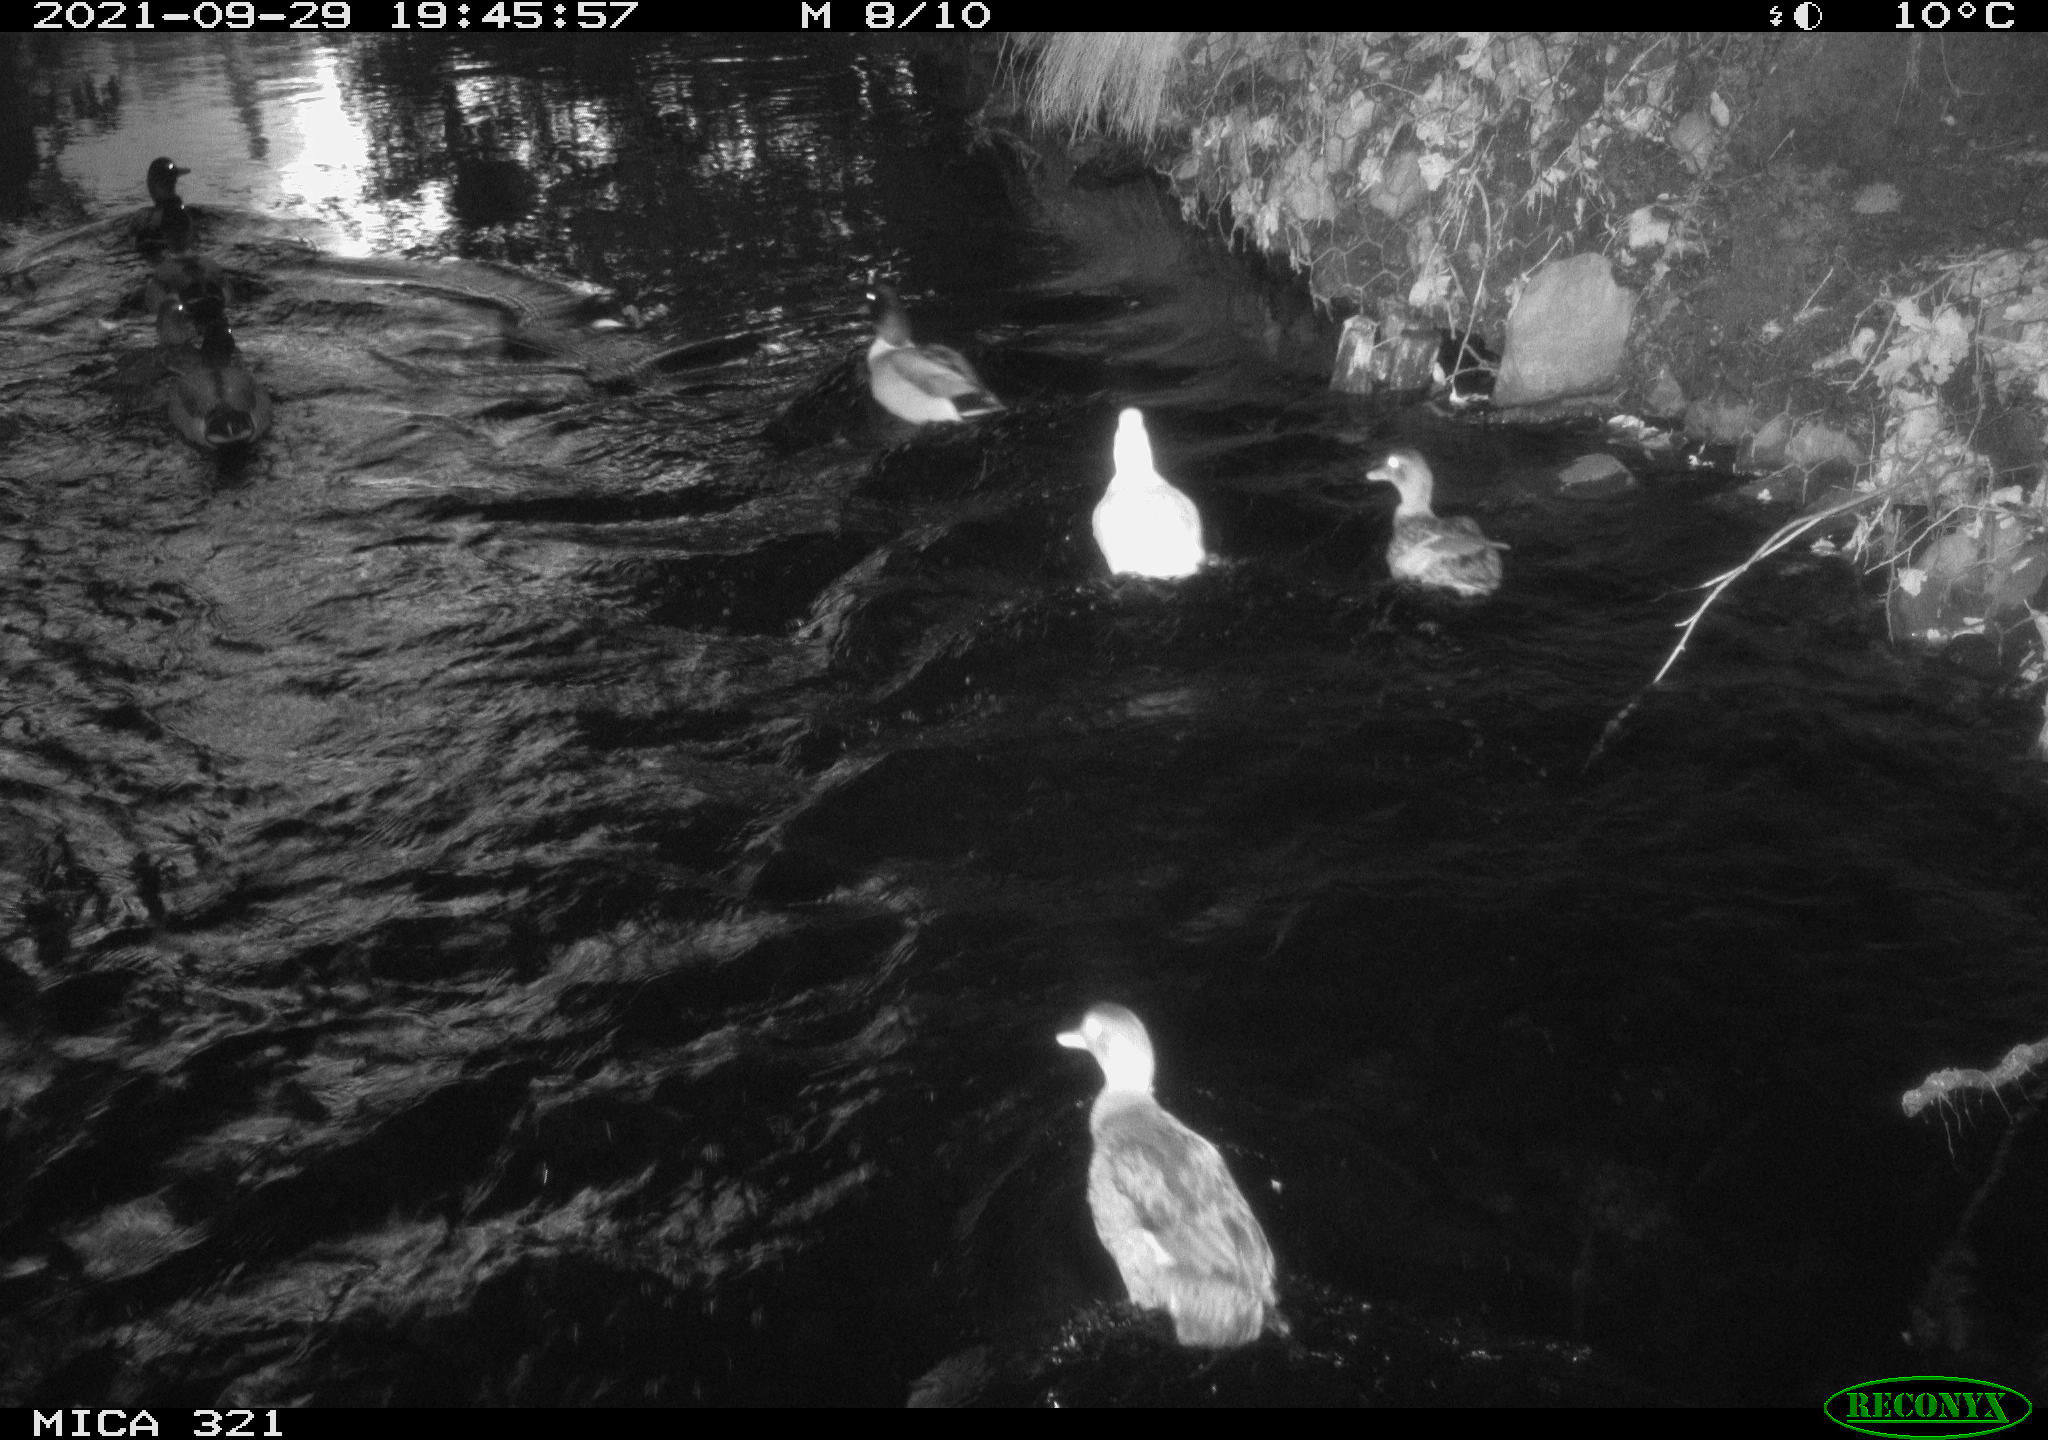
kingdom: Animalia
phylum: Chordata
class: Aves
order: Anseriformes
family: Anatidae
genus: Anas
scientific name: Anas platyrhynchos
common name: Mallard
